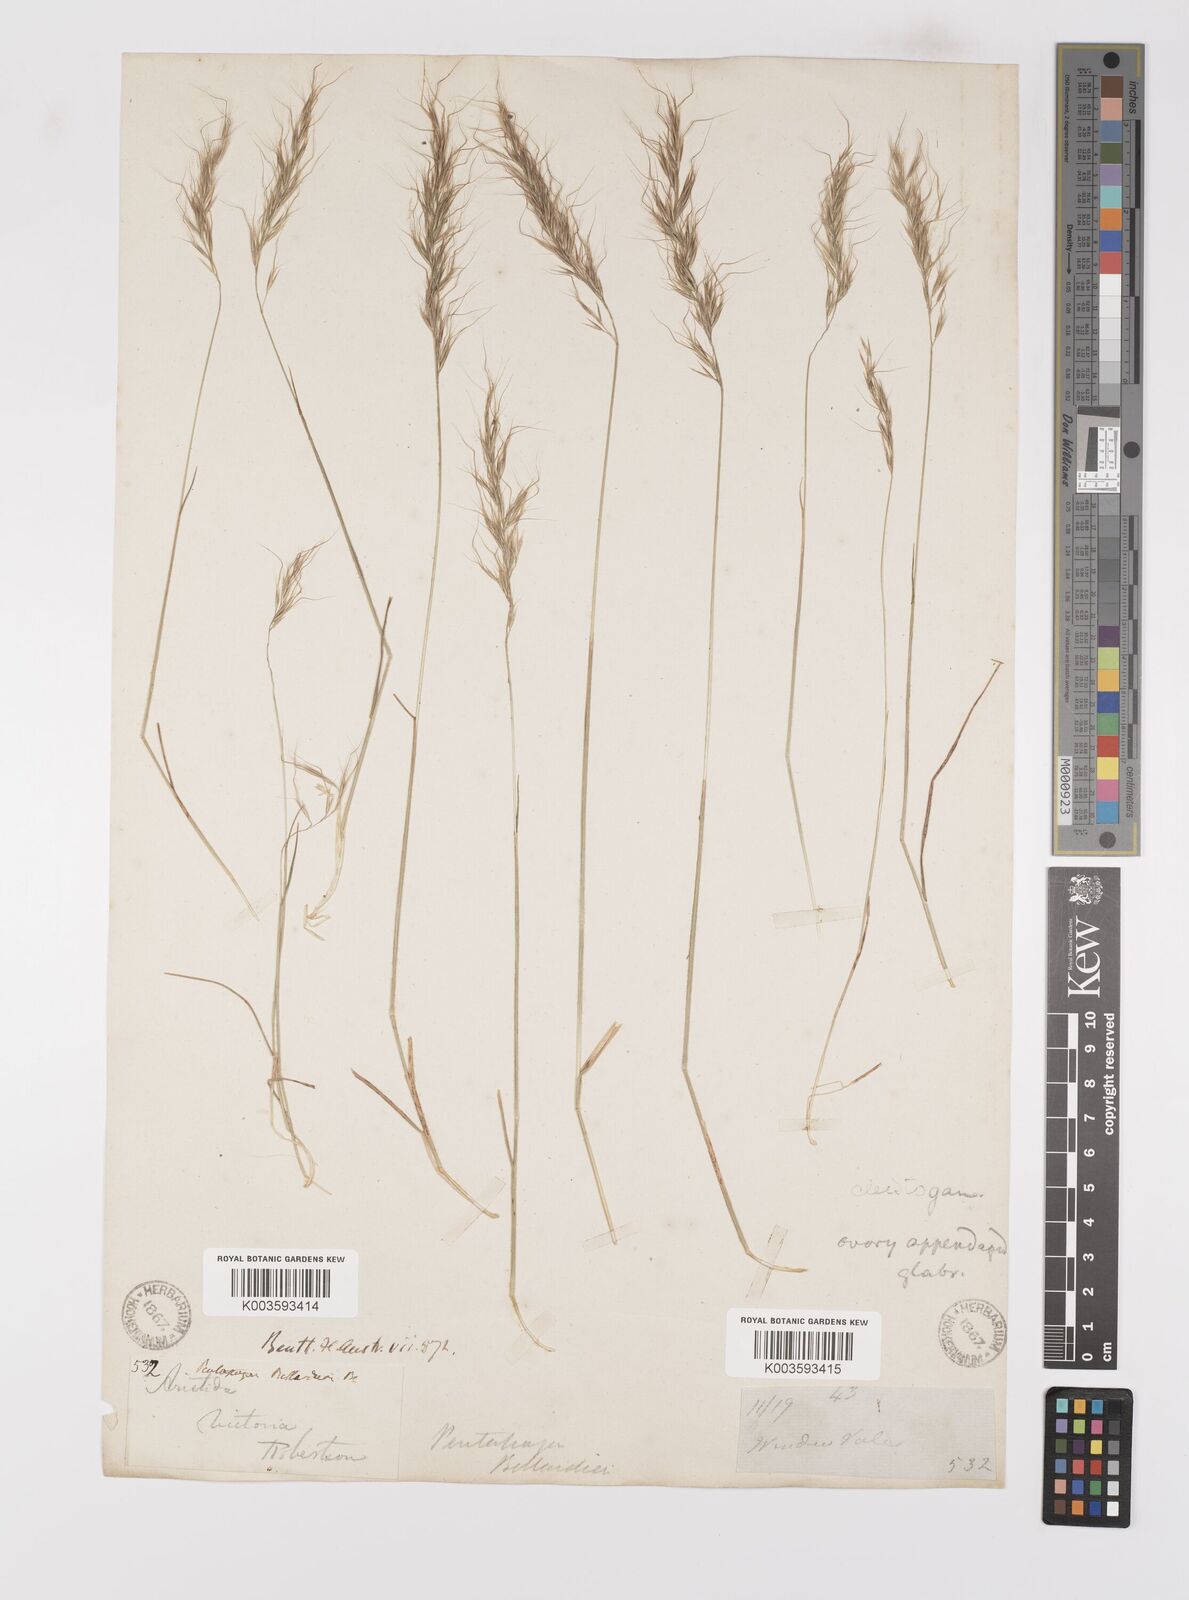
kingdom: Plantae
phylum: Tracheophyta
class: Liliopsida
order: Poales
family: Poaceae
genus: Pentapogon
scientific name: Pentapogon quadrifidus
